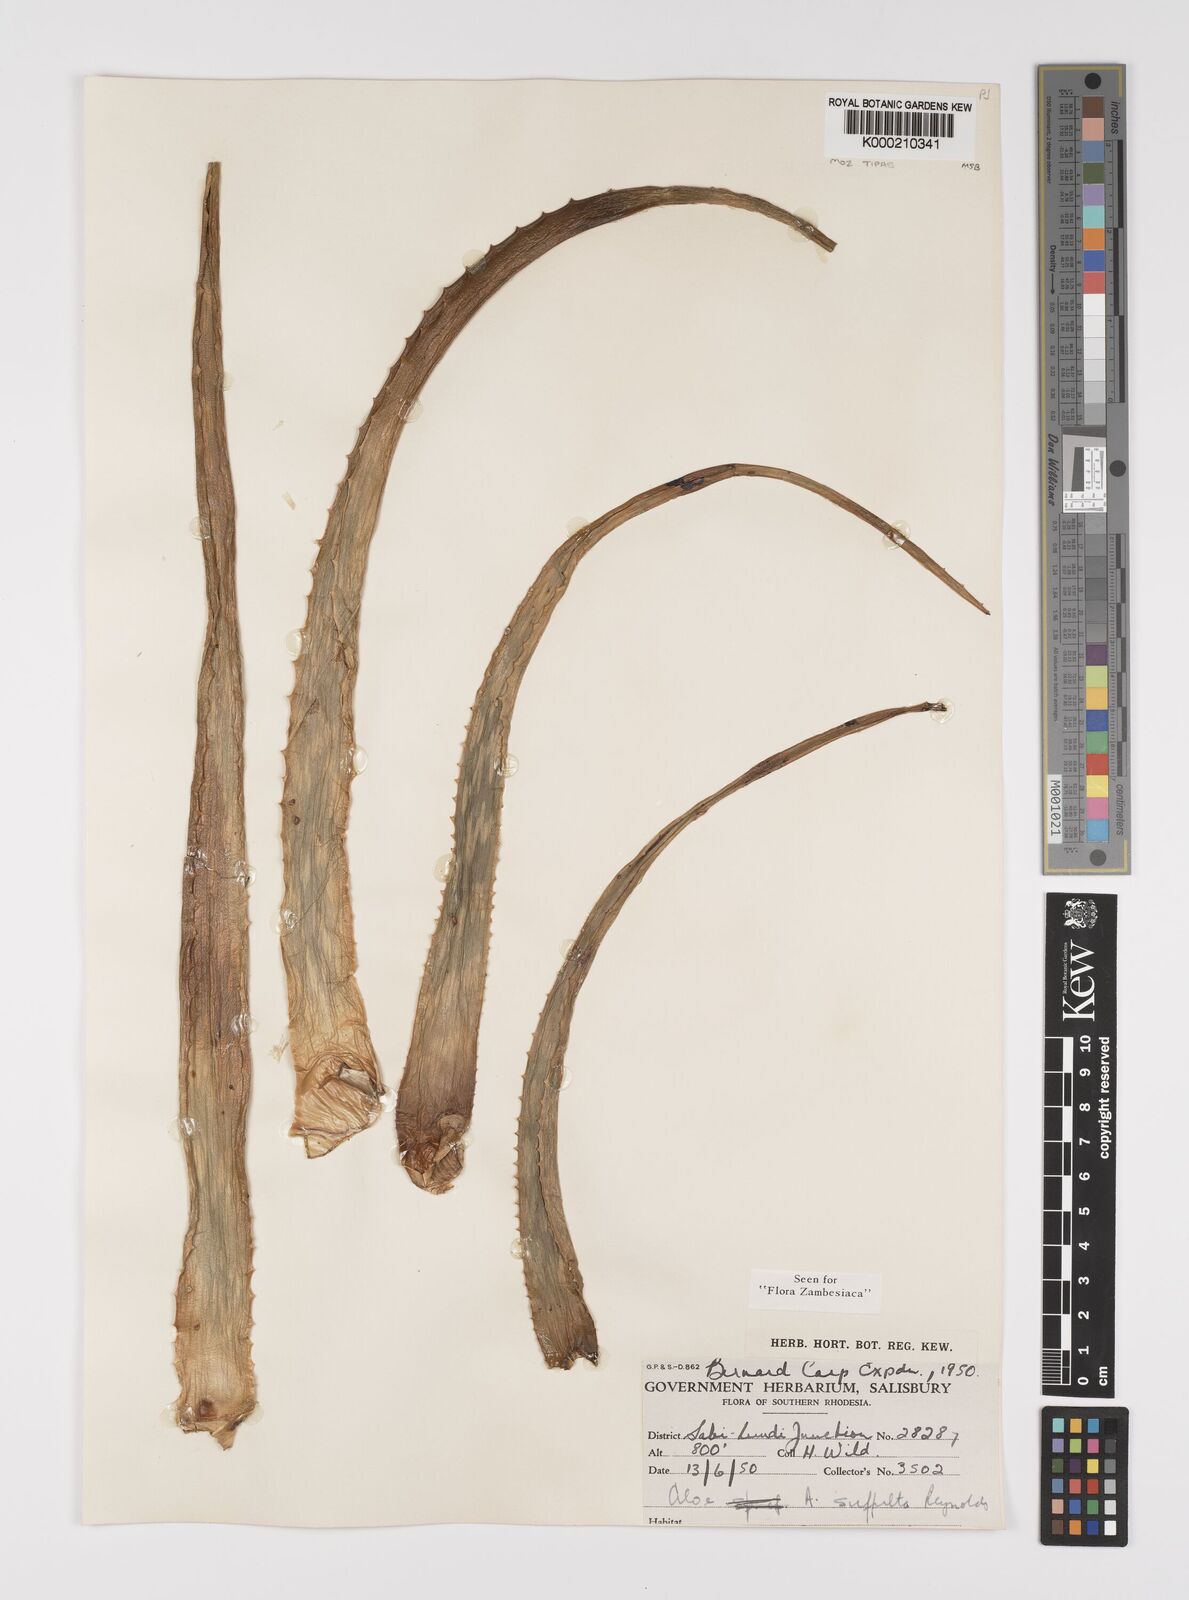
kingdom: Plantae
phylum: Tracheophyta
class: Liliopsida
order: Asparagales
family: Asphodelaceae
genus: Aloe
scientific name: Aloe suffulta
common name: Climbing-flower aloe
